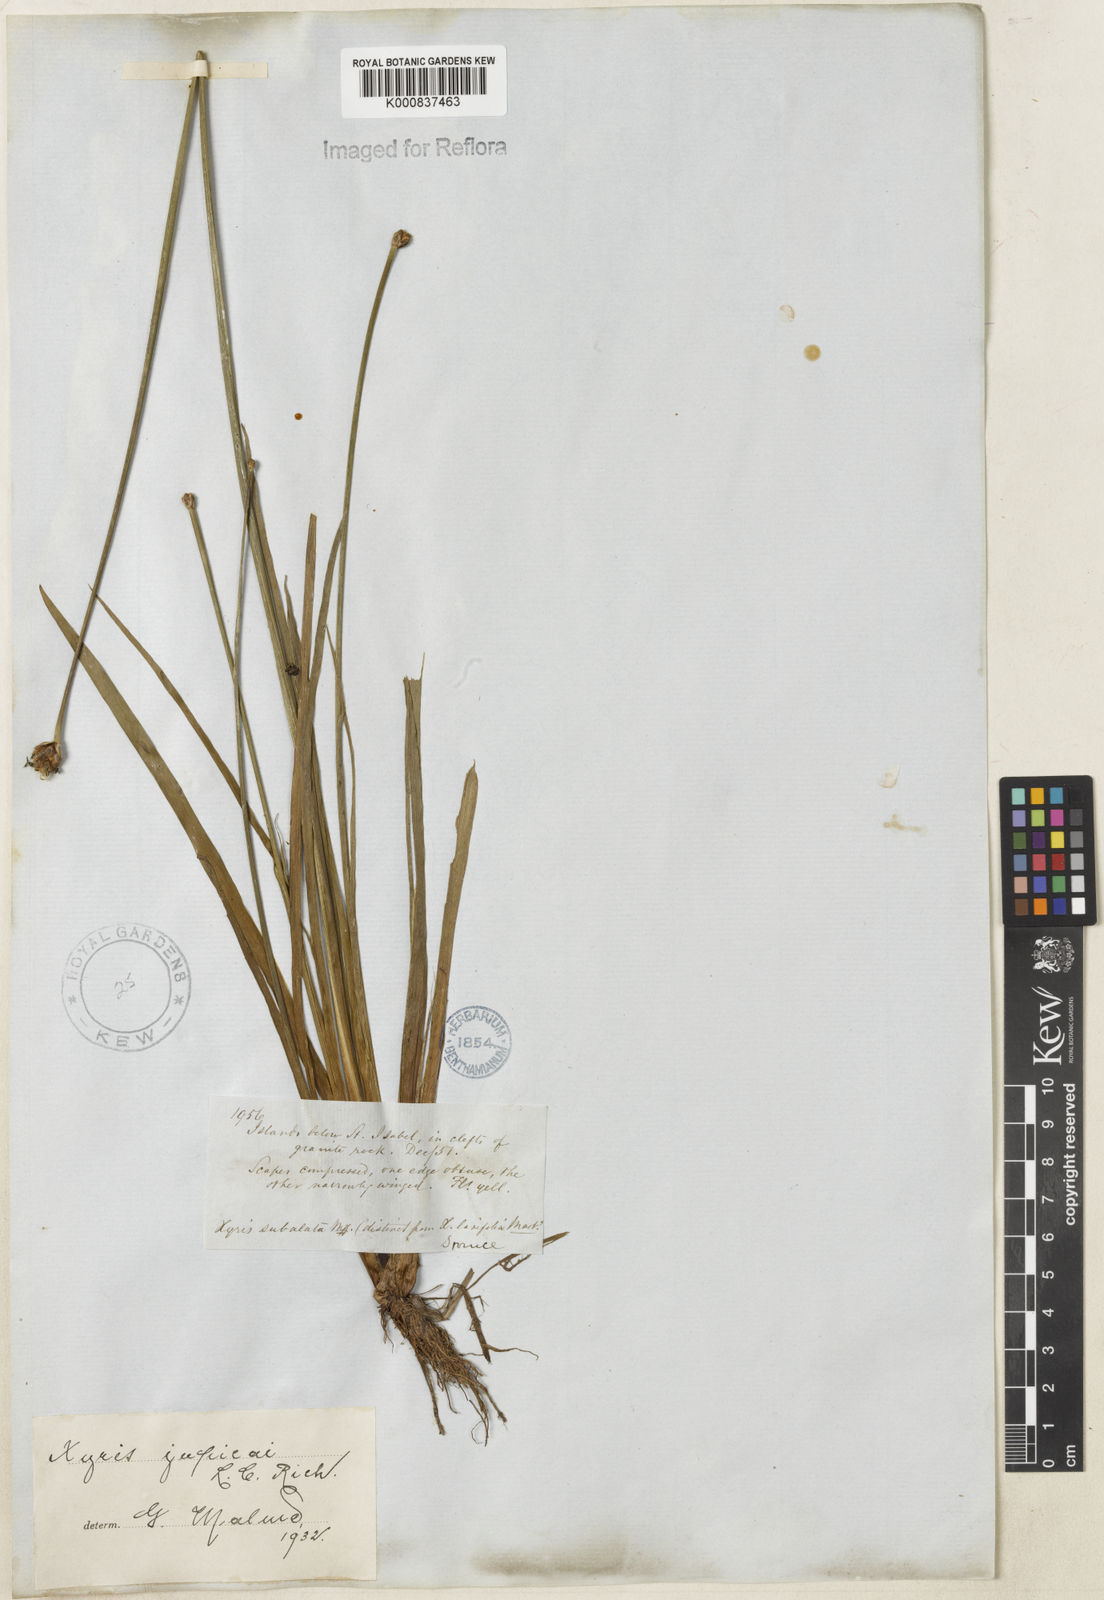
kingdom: Plantae
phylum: Tracheophyta
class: Liliopsida
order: Poales
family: Xyridaceae
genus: Xyris
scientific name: Xyris jupicai
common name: Richard's yelloweyed grass
